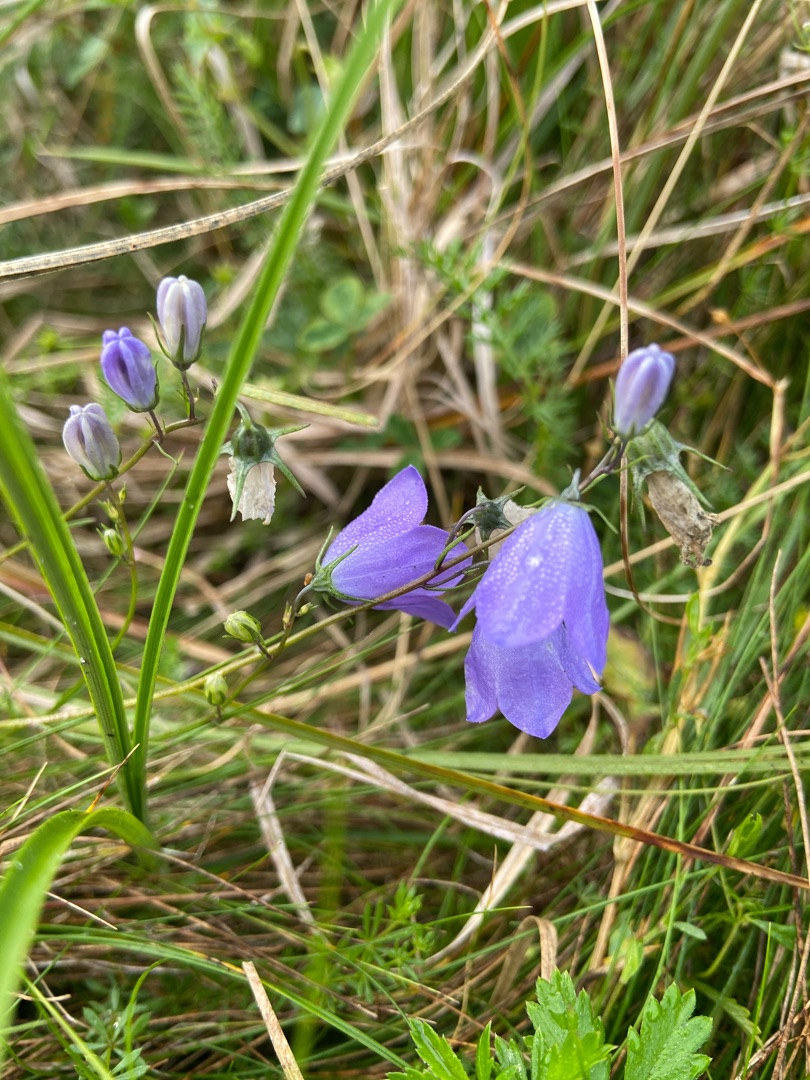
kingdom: Plantae
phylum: Tracheophyta
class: Magnoliopsida
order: Asterales
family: Campanulaceae
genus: Campanula
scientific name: Campanula rotundifolia
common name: Liden klokke
